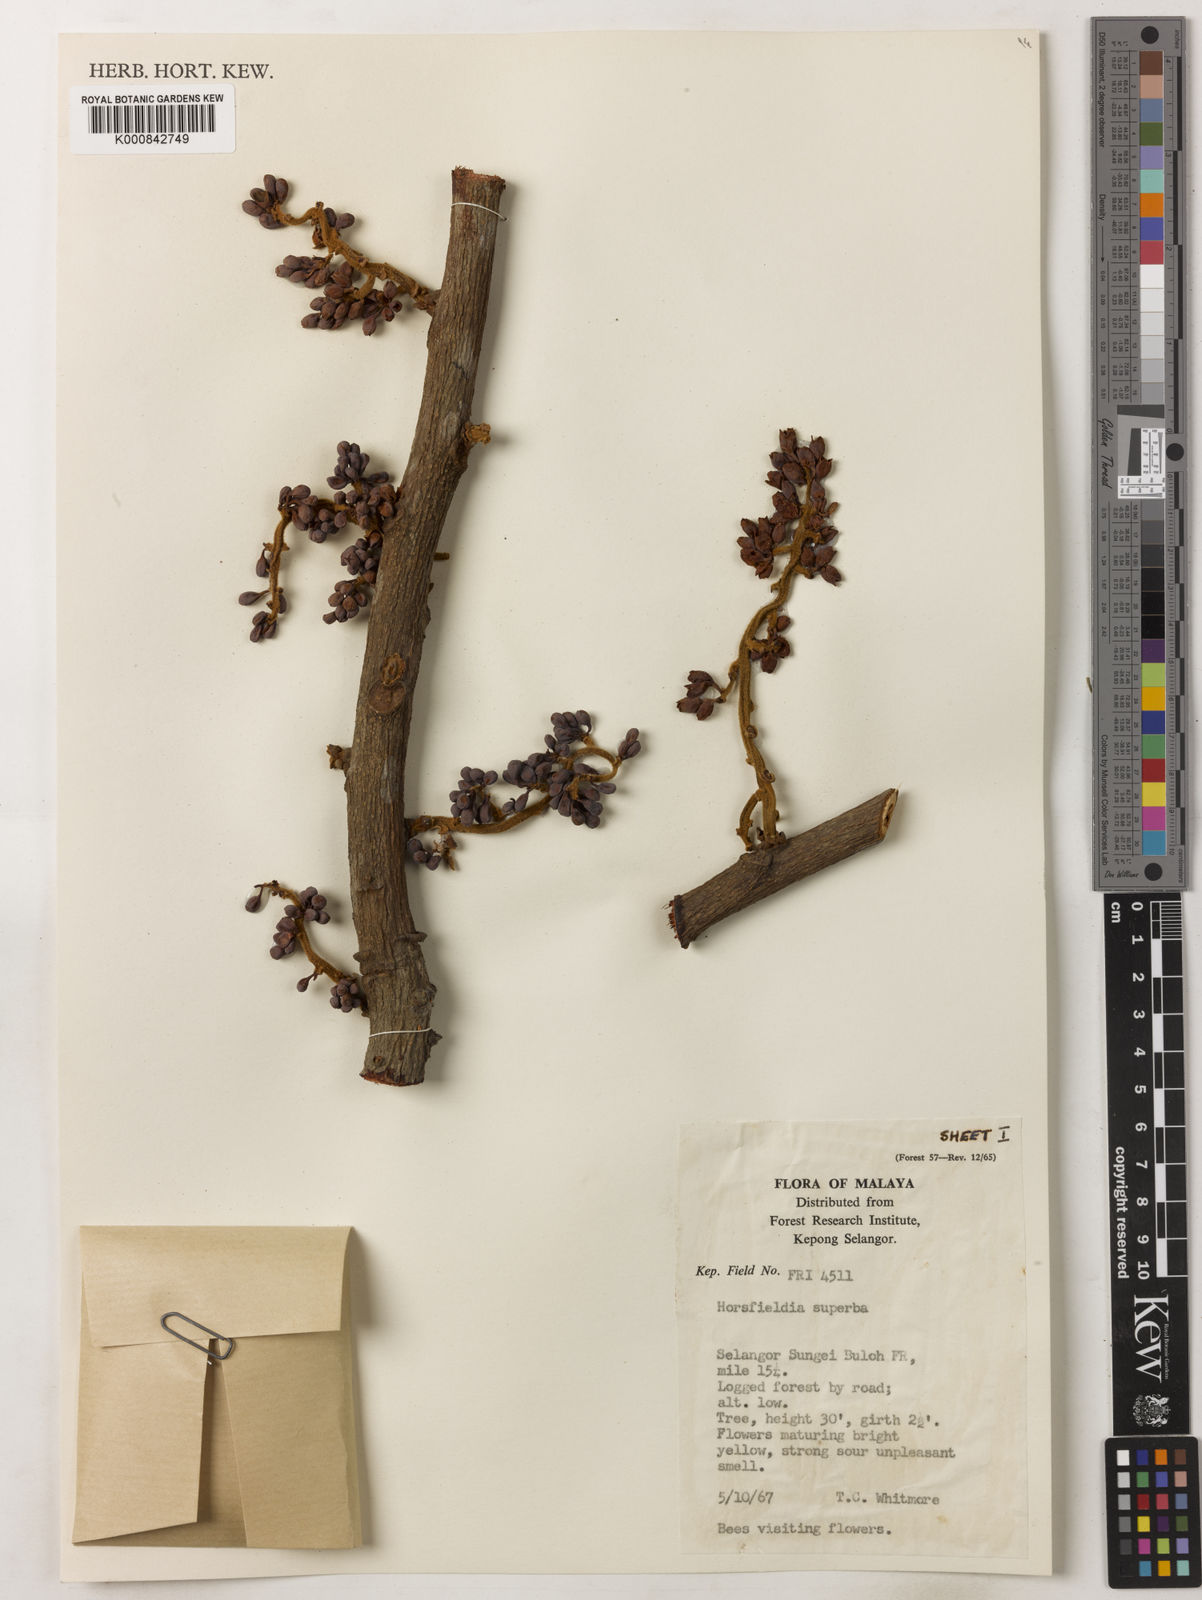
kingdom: Plantae
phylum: Tracheophyta
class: Magnoliopsida
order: Magnoliales
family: Myristicaceae
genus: Horsfieldia
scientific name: Horsfieldia superba
